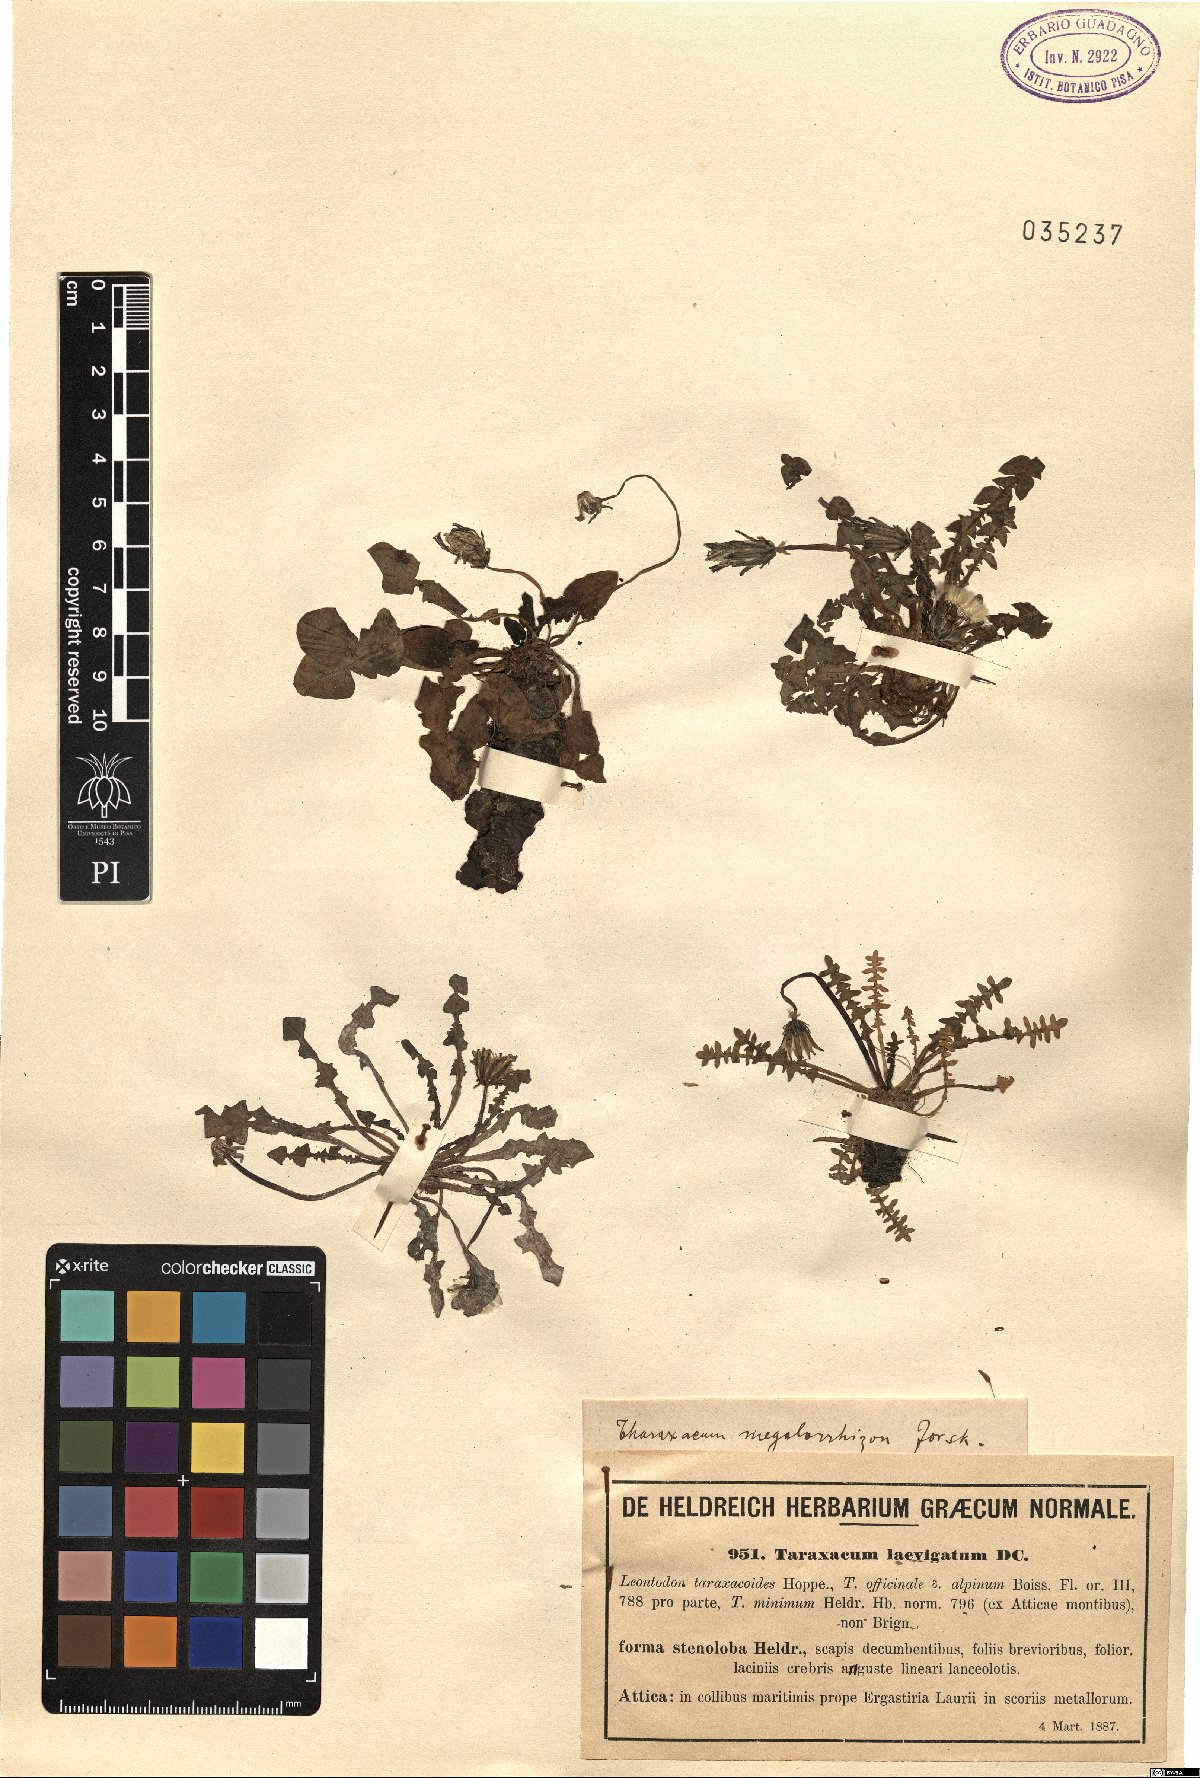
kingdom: Plantae
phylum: Tracheophyta
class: Magnoliopsida
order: Asterales
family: Asteraceae
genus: Taraxacum
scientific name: Taraxacum hellenicum
